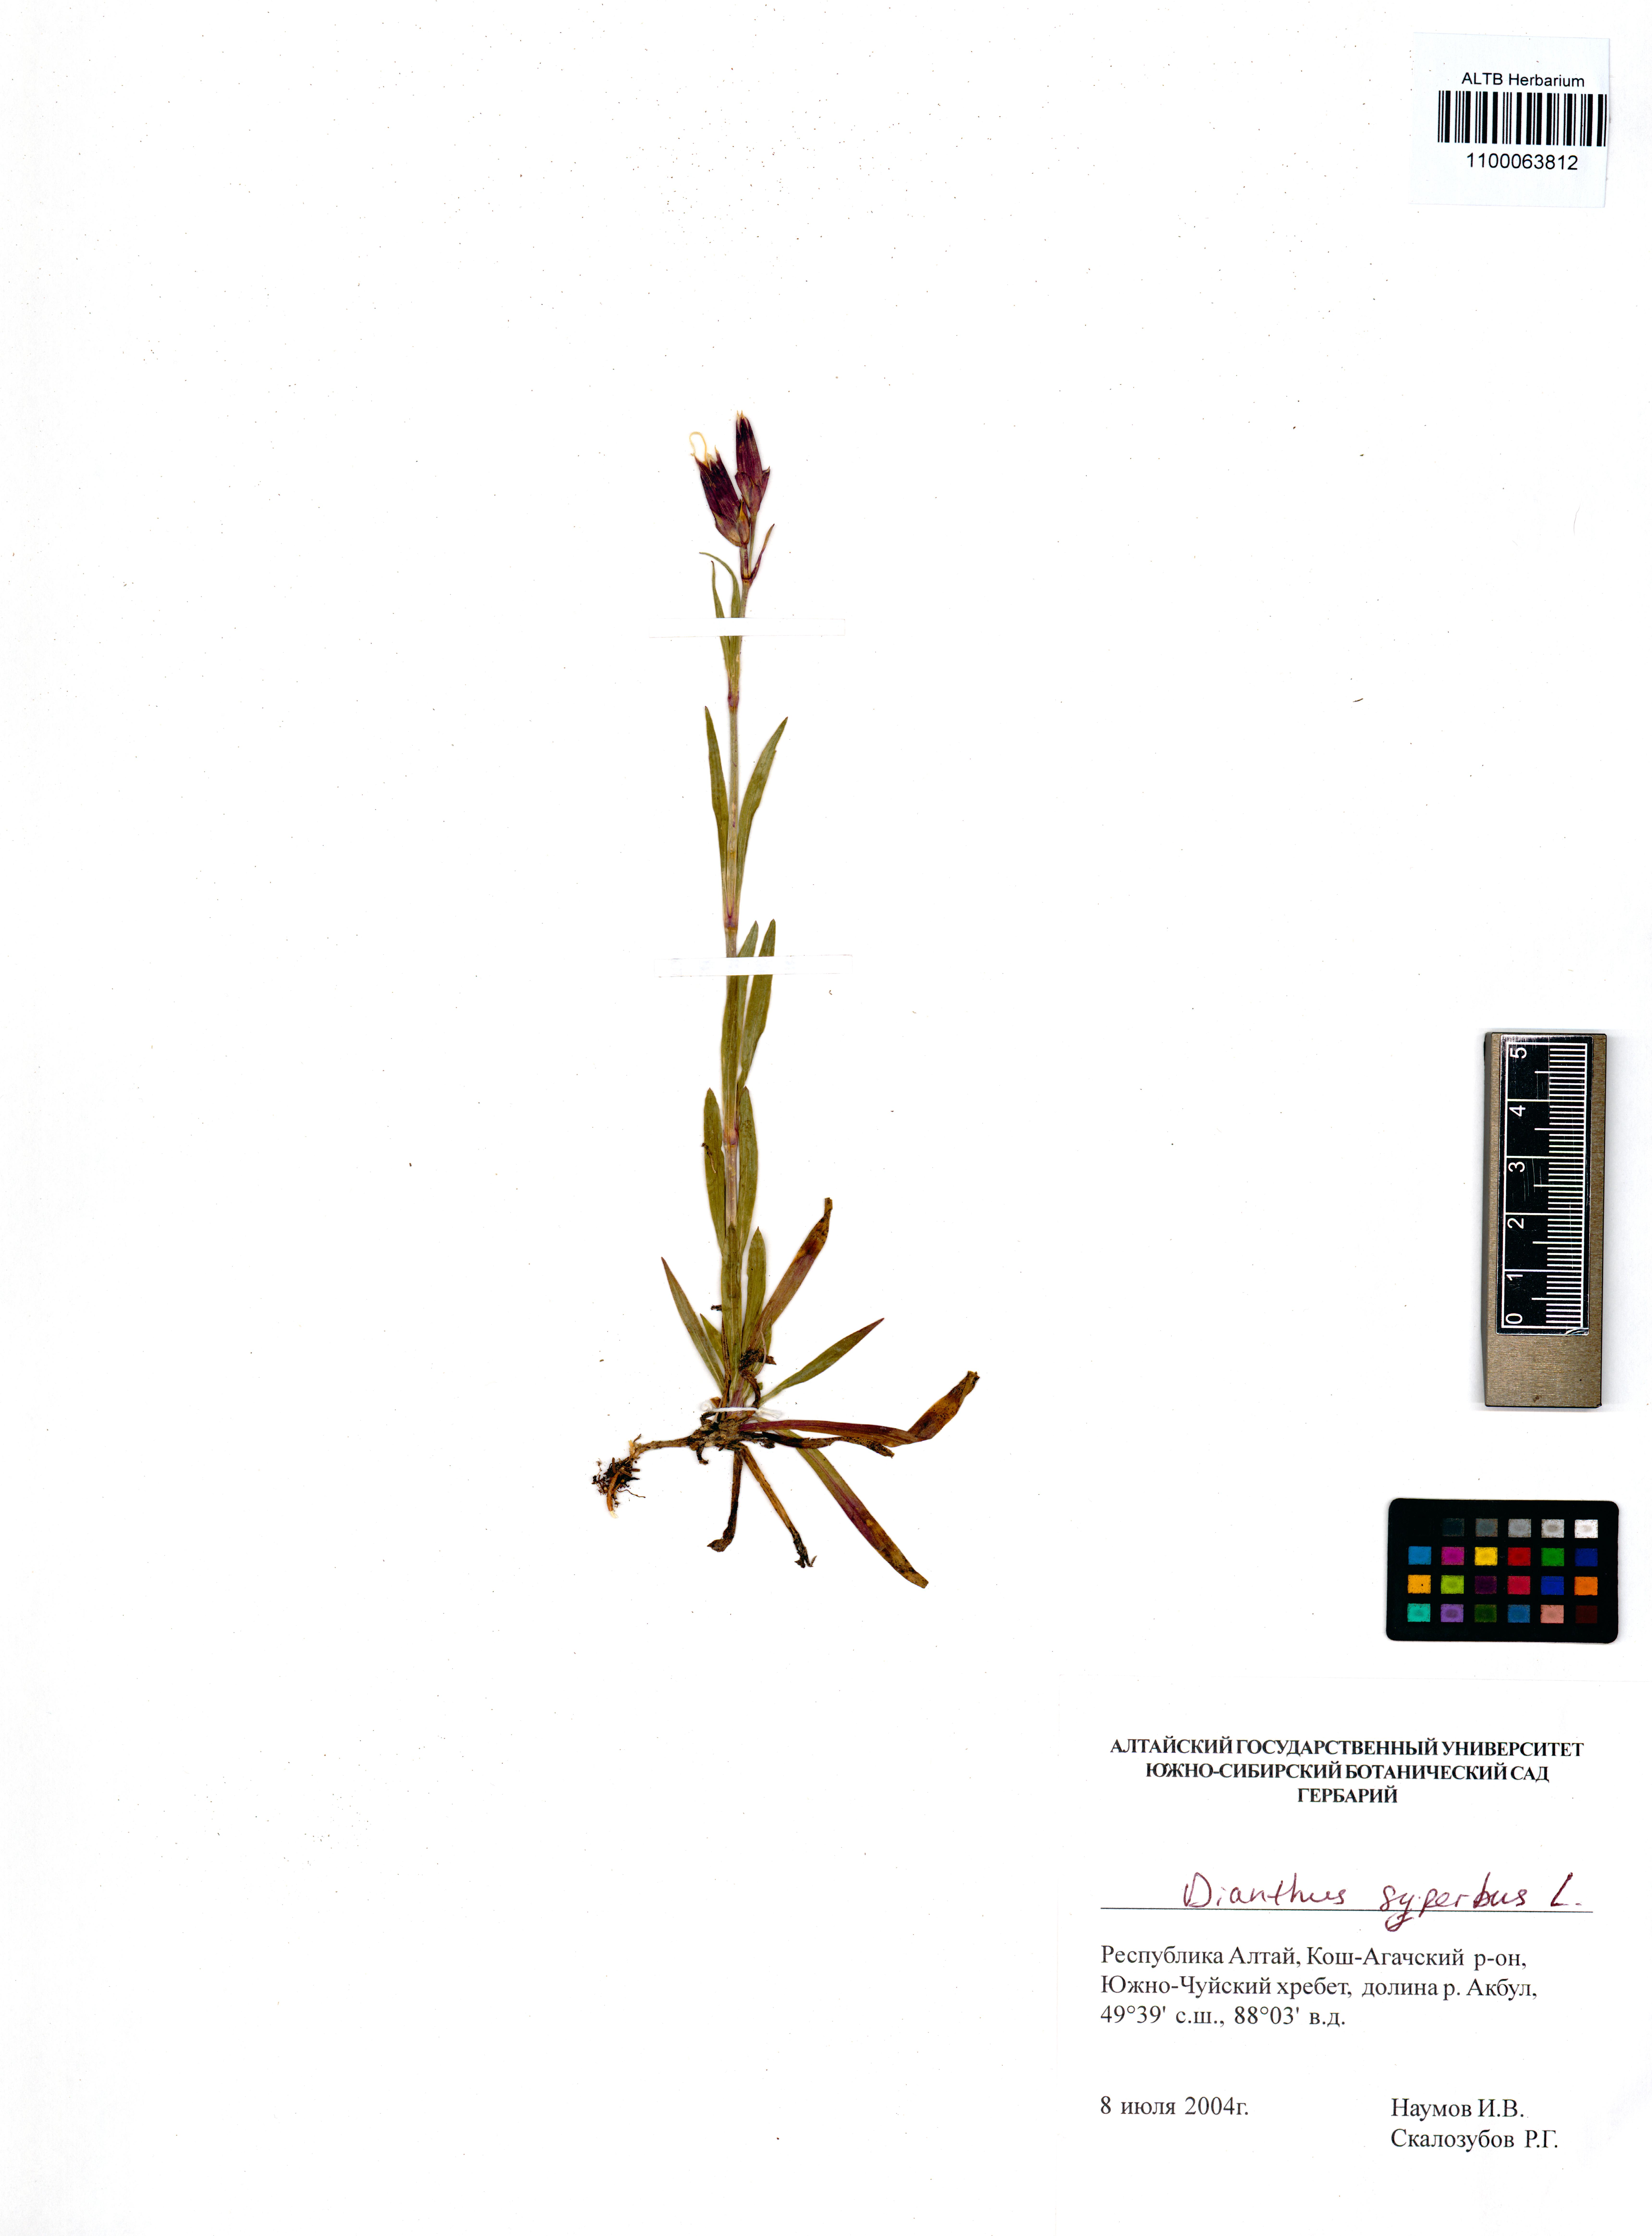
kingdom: Plantae
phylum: Tracheophyta
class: Magnoliopsida
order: Caryophyllales
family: Caryophyllaceae
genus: Dianthus
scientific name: Dianthus superbus
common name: Fringed pink
